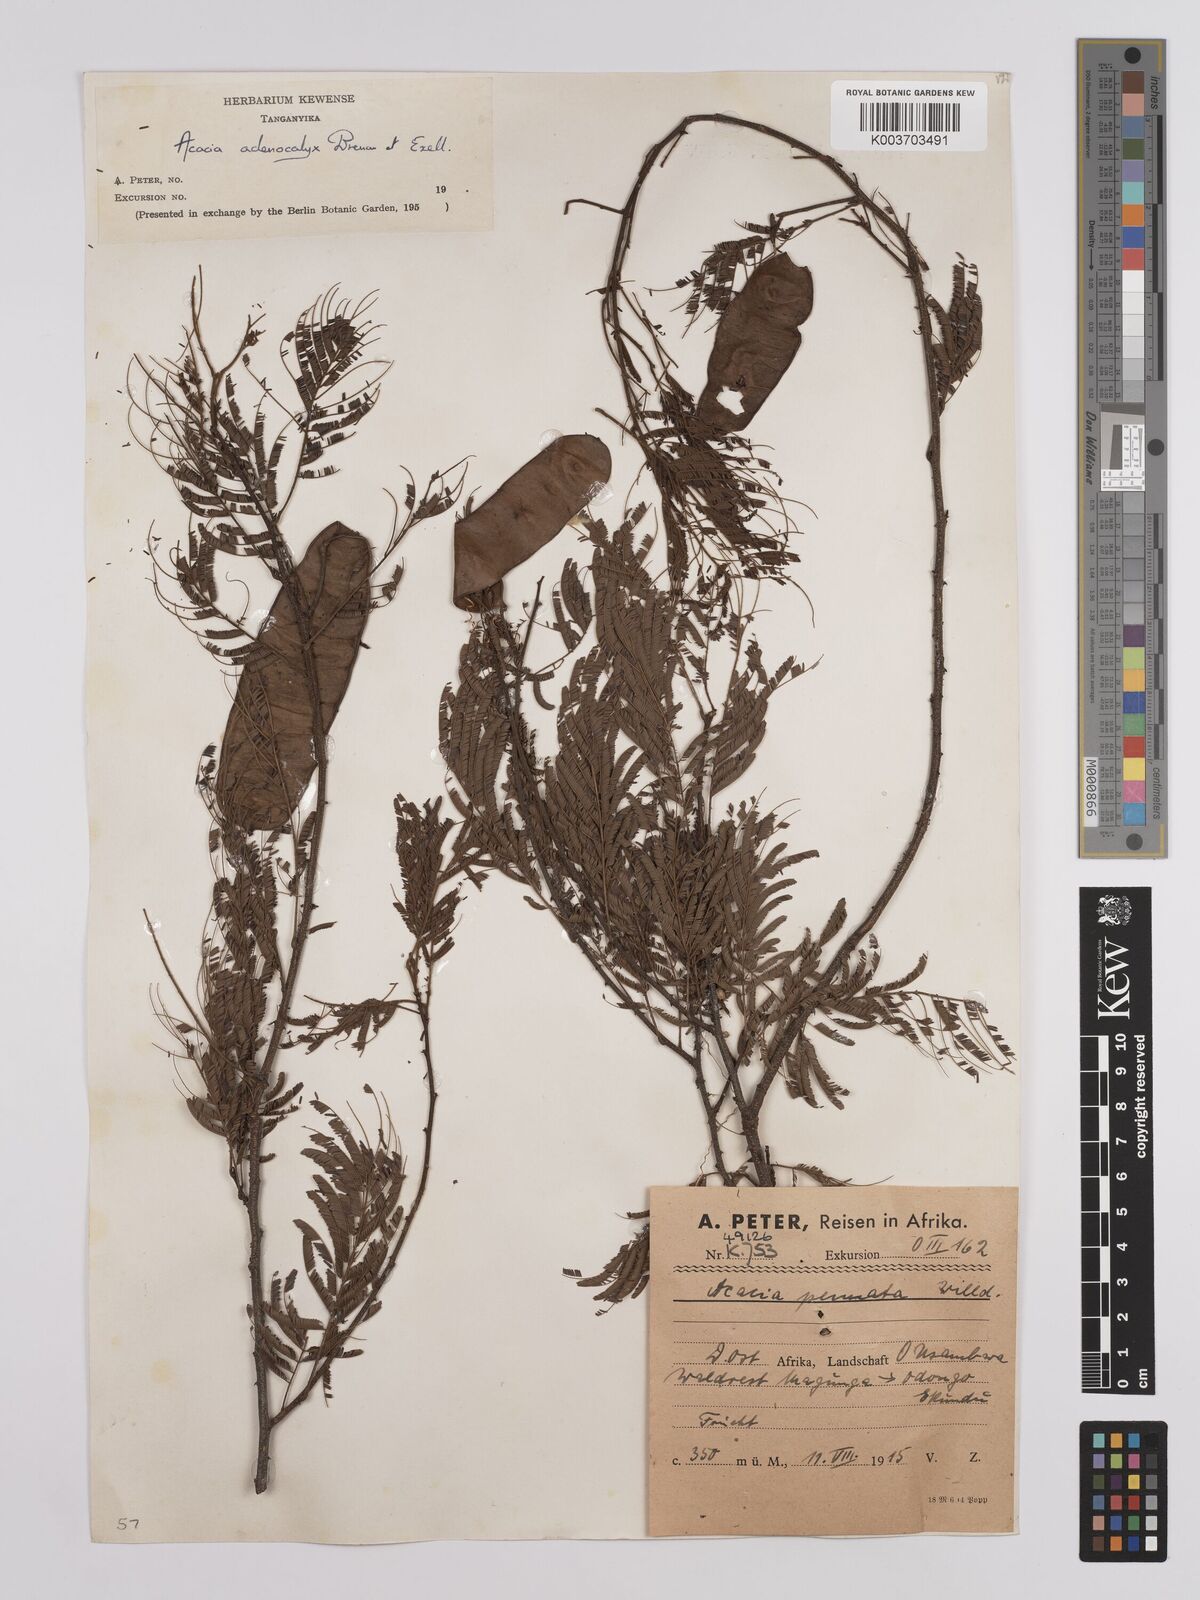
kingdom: Plantae
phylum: Tracheophyta
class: Magnoliopsida
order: Fabales
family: Fabaceae
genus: Senegalia
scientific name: Senegalia adenocalyx
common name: Pfurura
